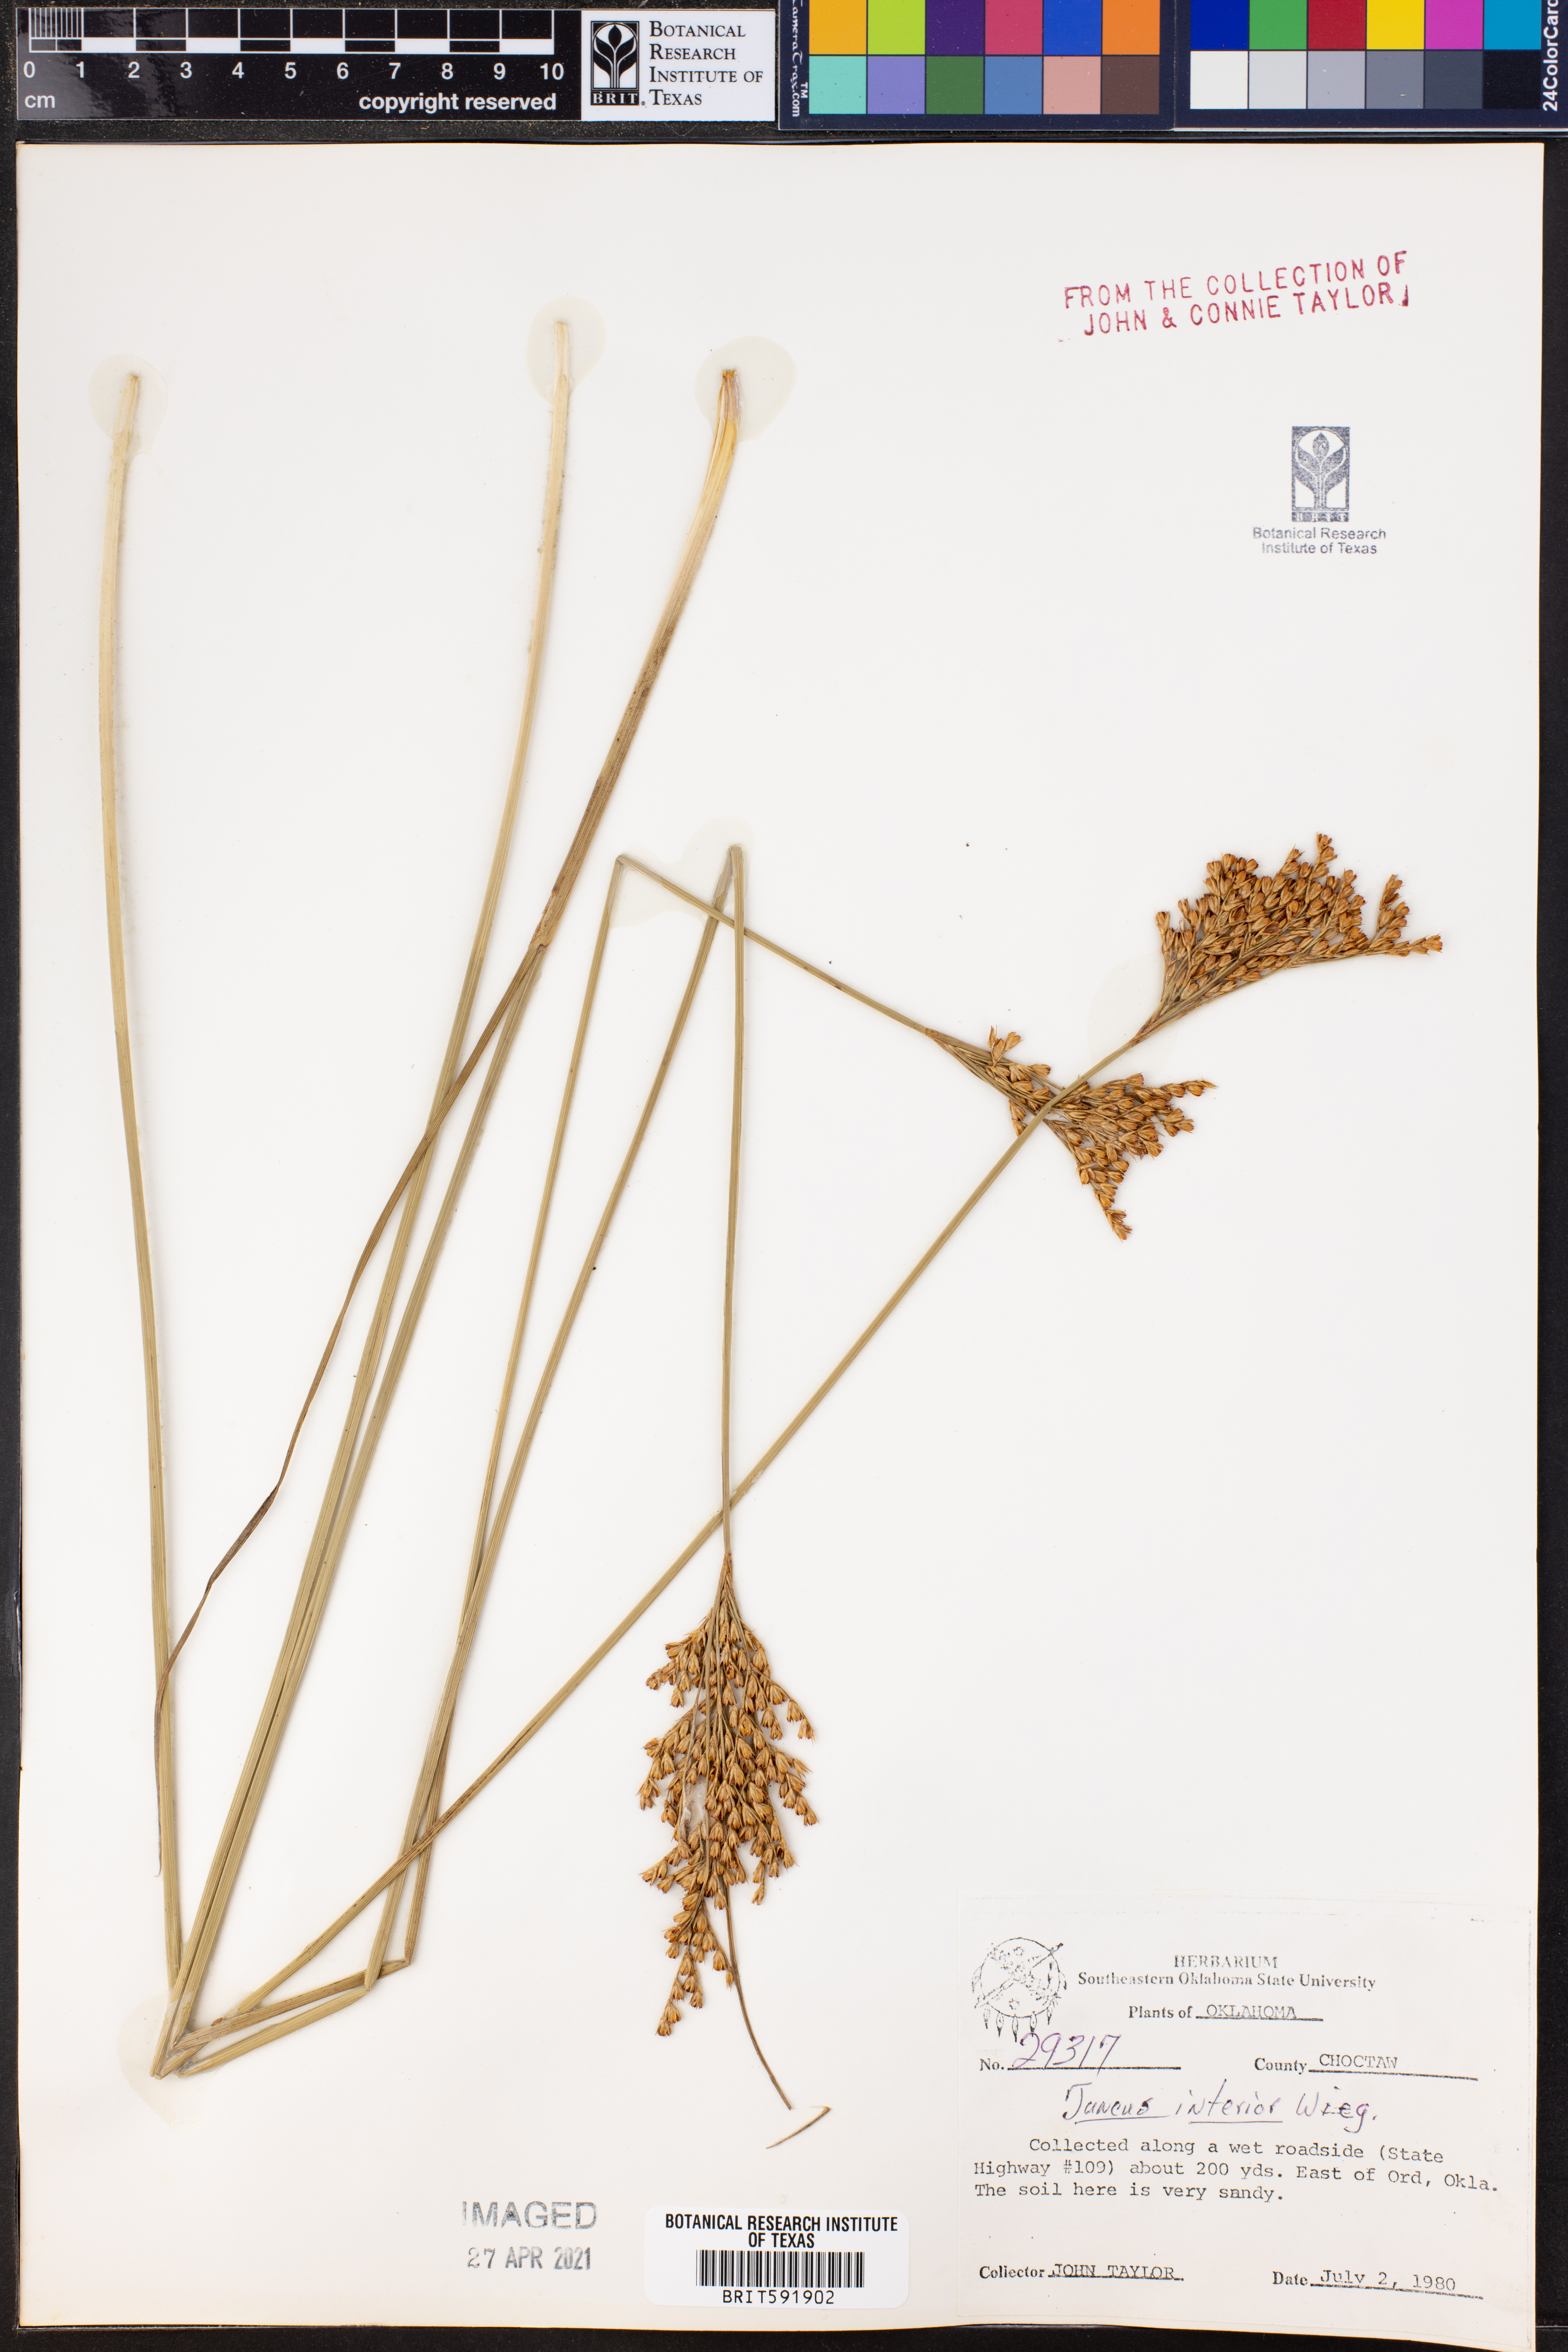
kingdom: Plantae
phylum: Tracheophyta
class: Liliopsida
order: Poales
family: Juncaceae
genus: Juncus
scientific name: Juncus interior
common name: Interior rush
